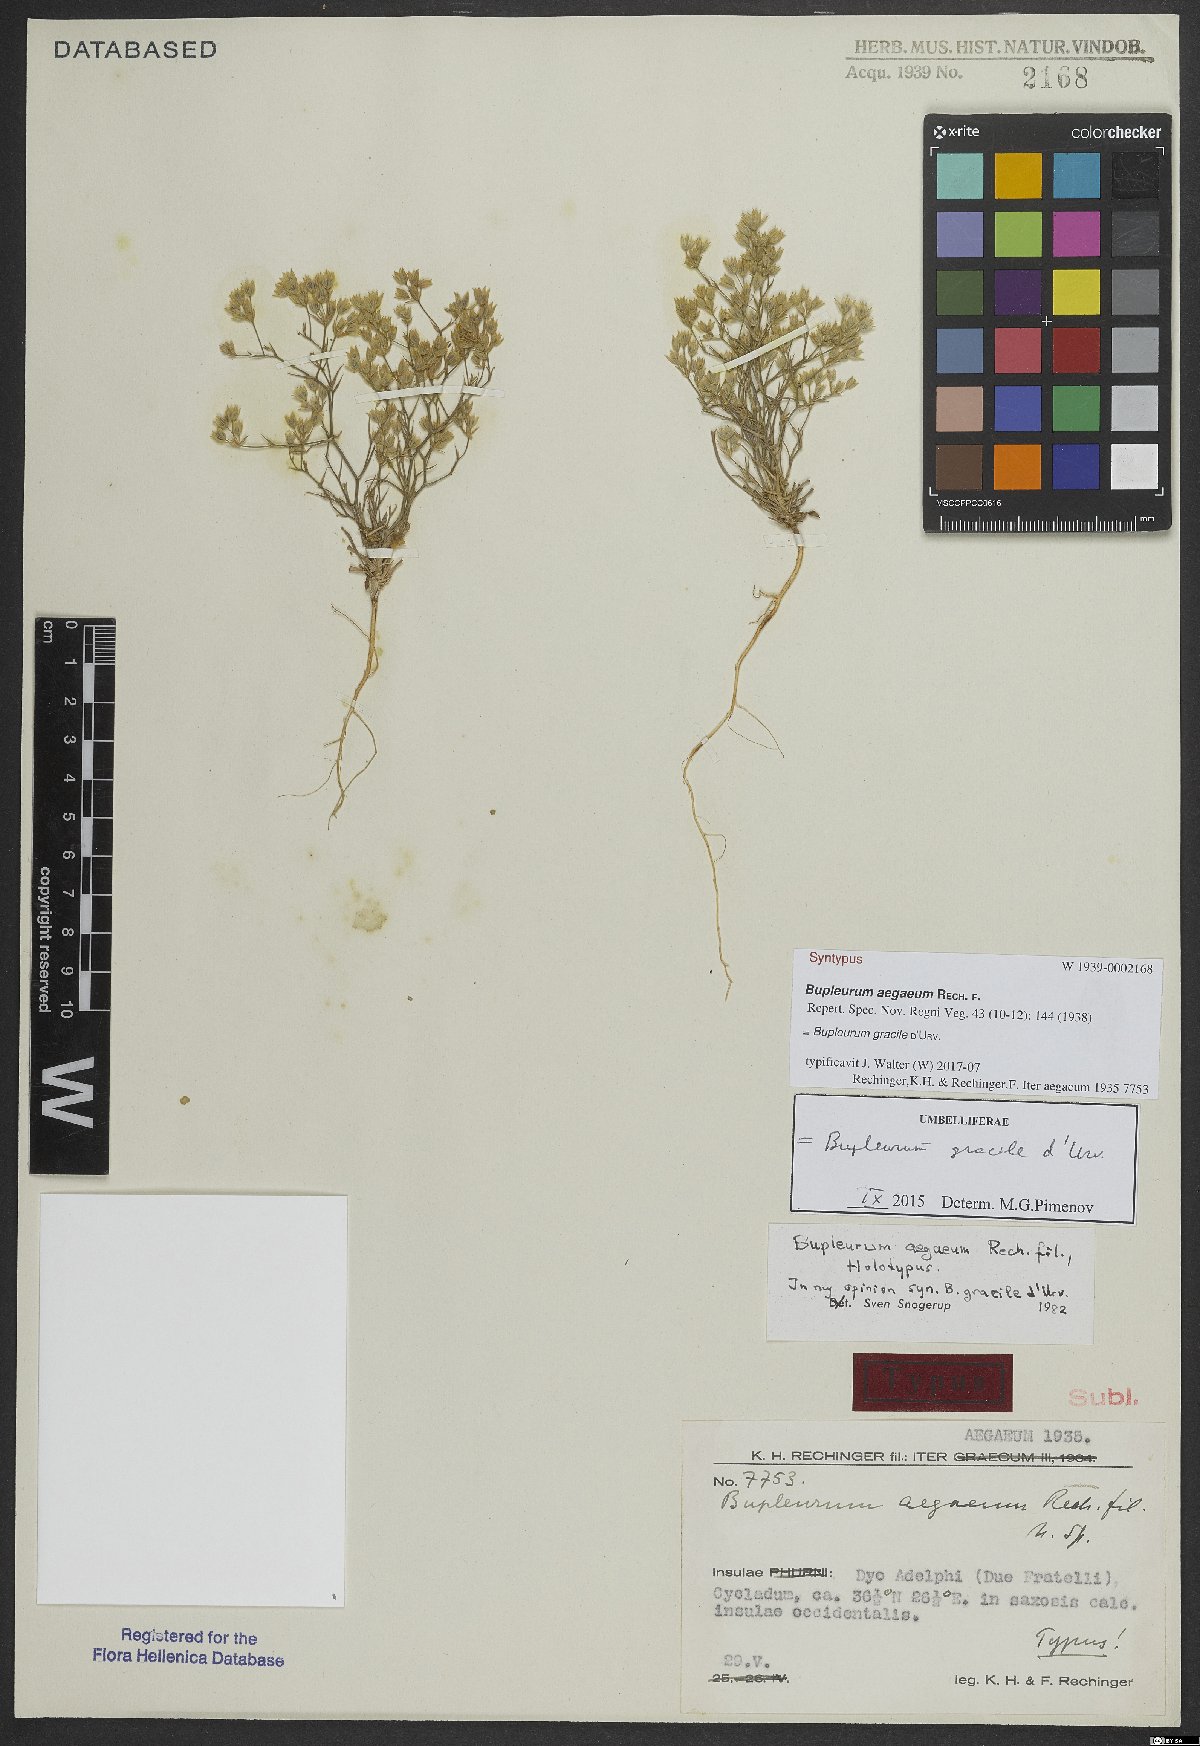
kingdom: Plantae
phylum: Tracheophyta
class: Magnoliopsida
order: Apiales
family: Apiaceae
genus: Bupleurum
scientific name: Bupleurum gracile
